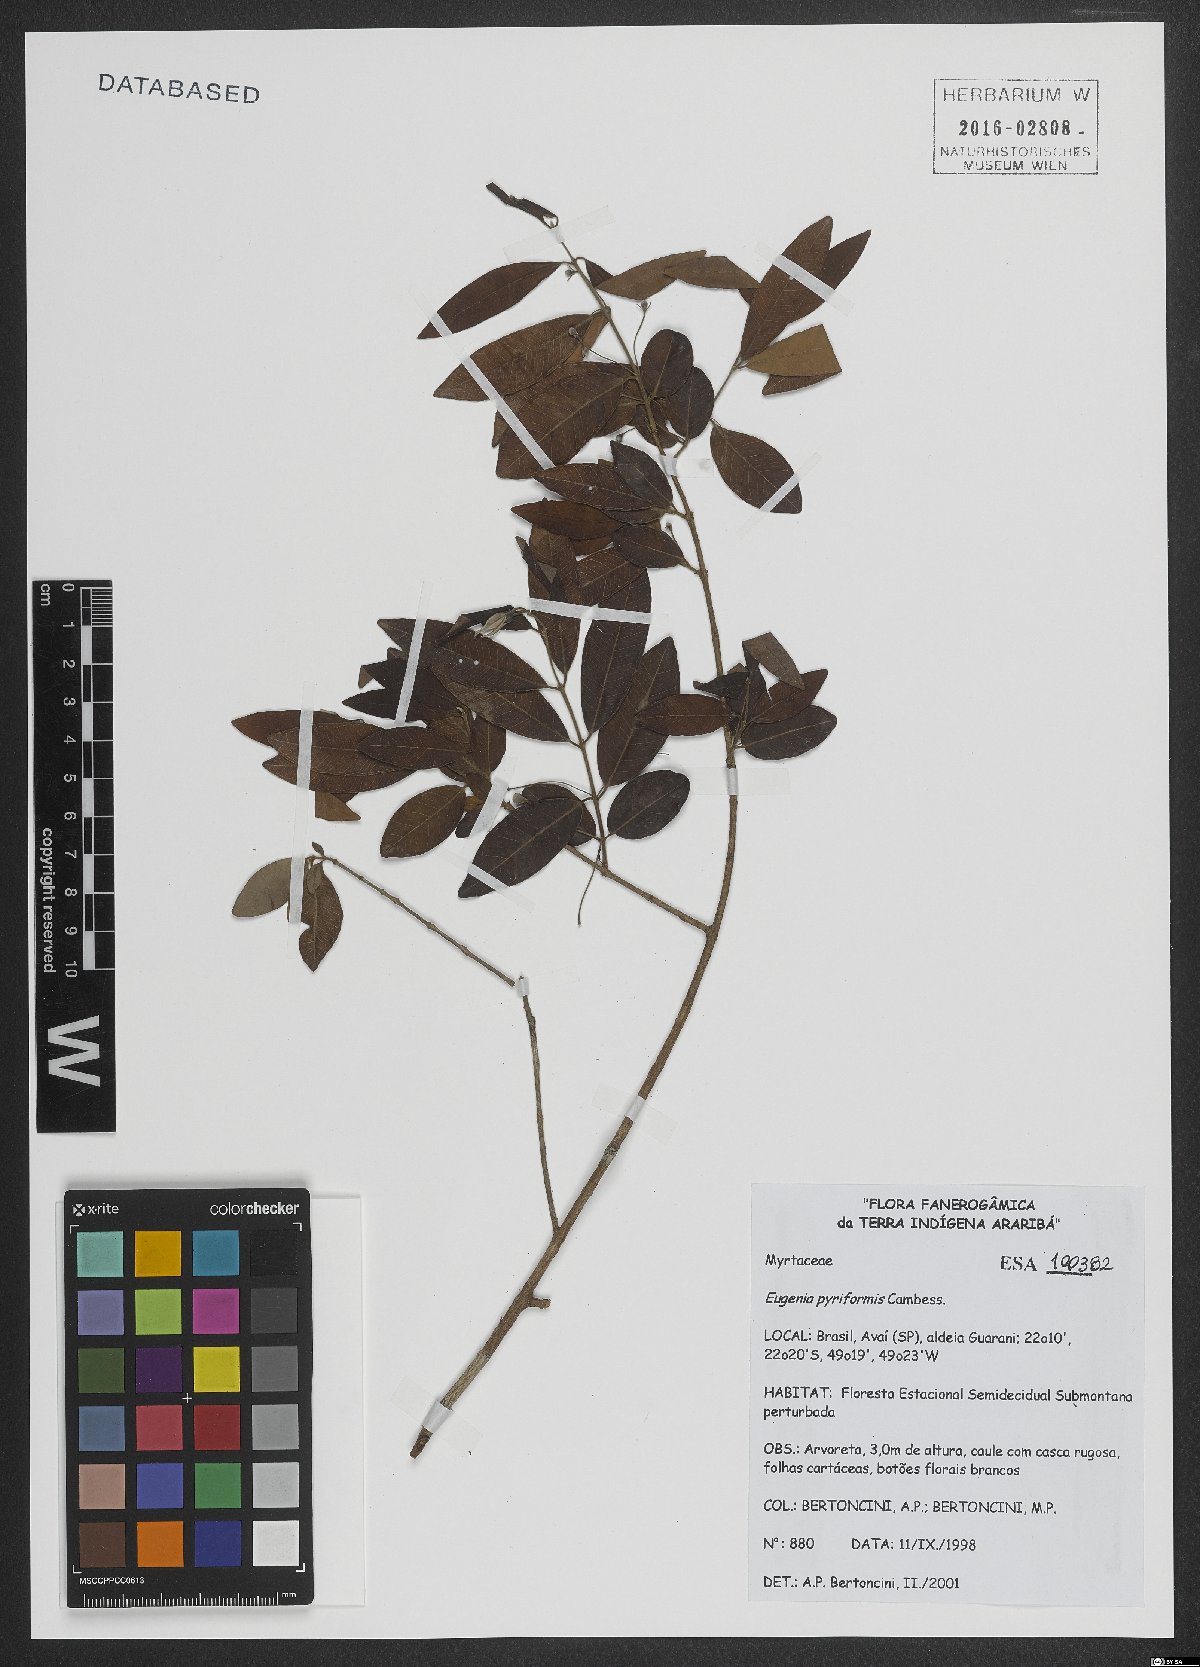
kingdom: Plantae
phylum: Tracheophyta
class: Magnoliopsida
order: Myrtales
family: Myrtaceae
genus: Eugenia
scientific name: Eugenia pyriformis
